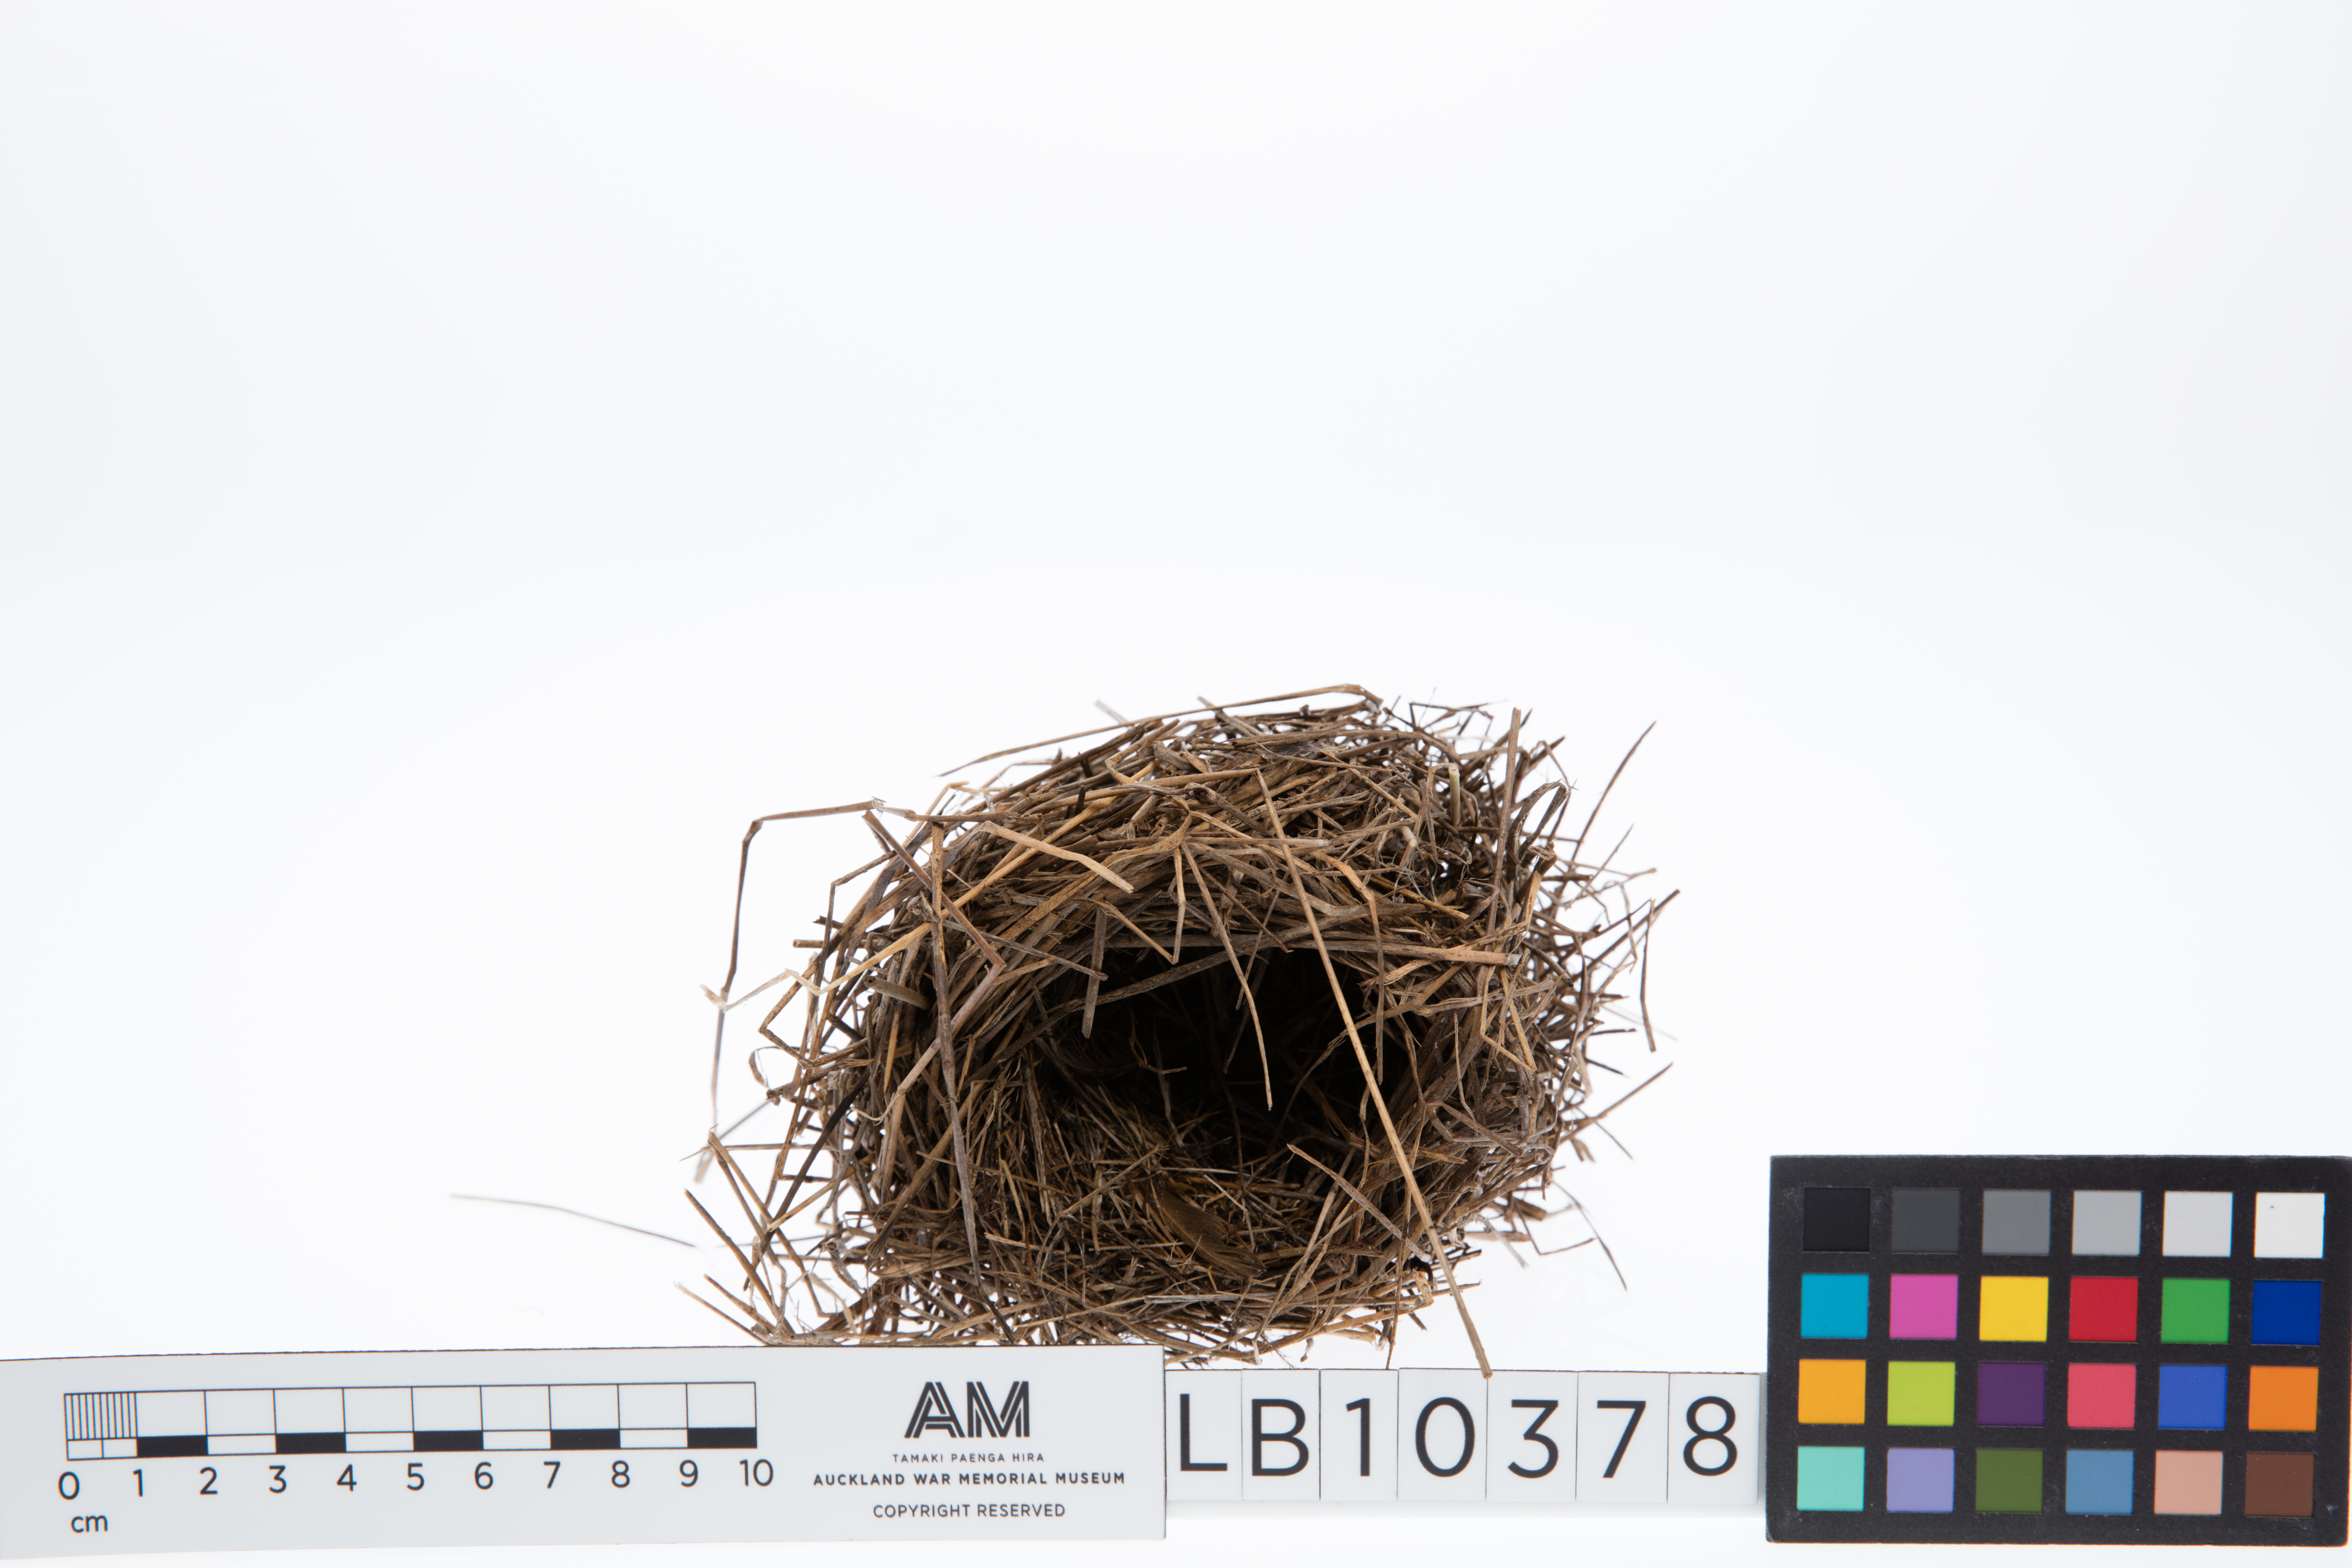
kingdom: Animalia
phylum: Chordata
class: Aves
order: Passeriformes
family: Locustellidae
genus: Megalurus
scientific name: Megalurus punctatus
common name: New zealand fernbird
